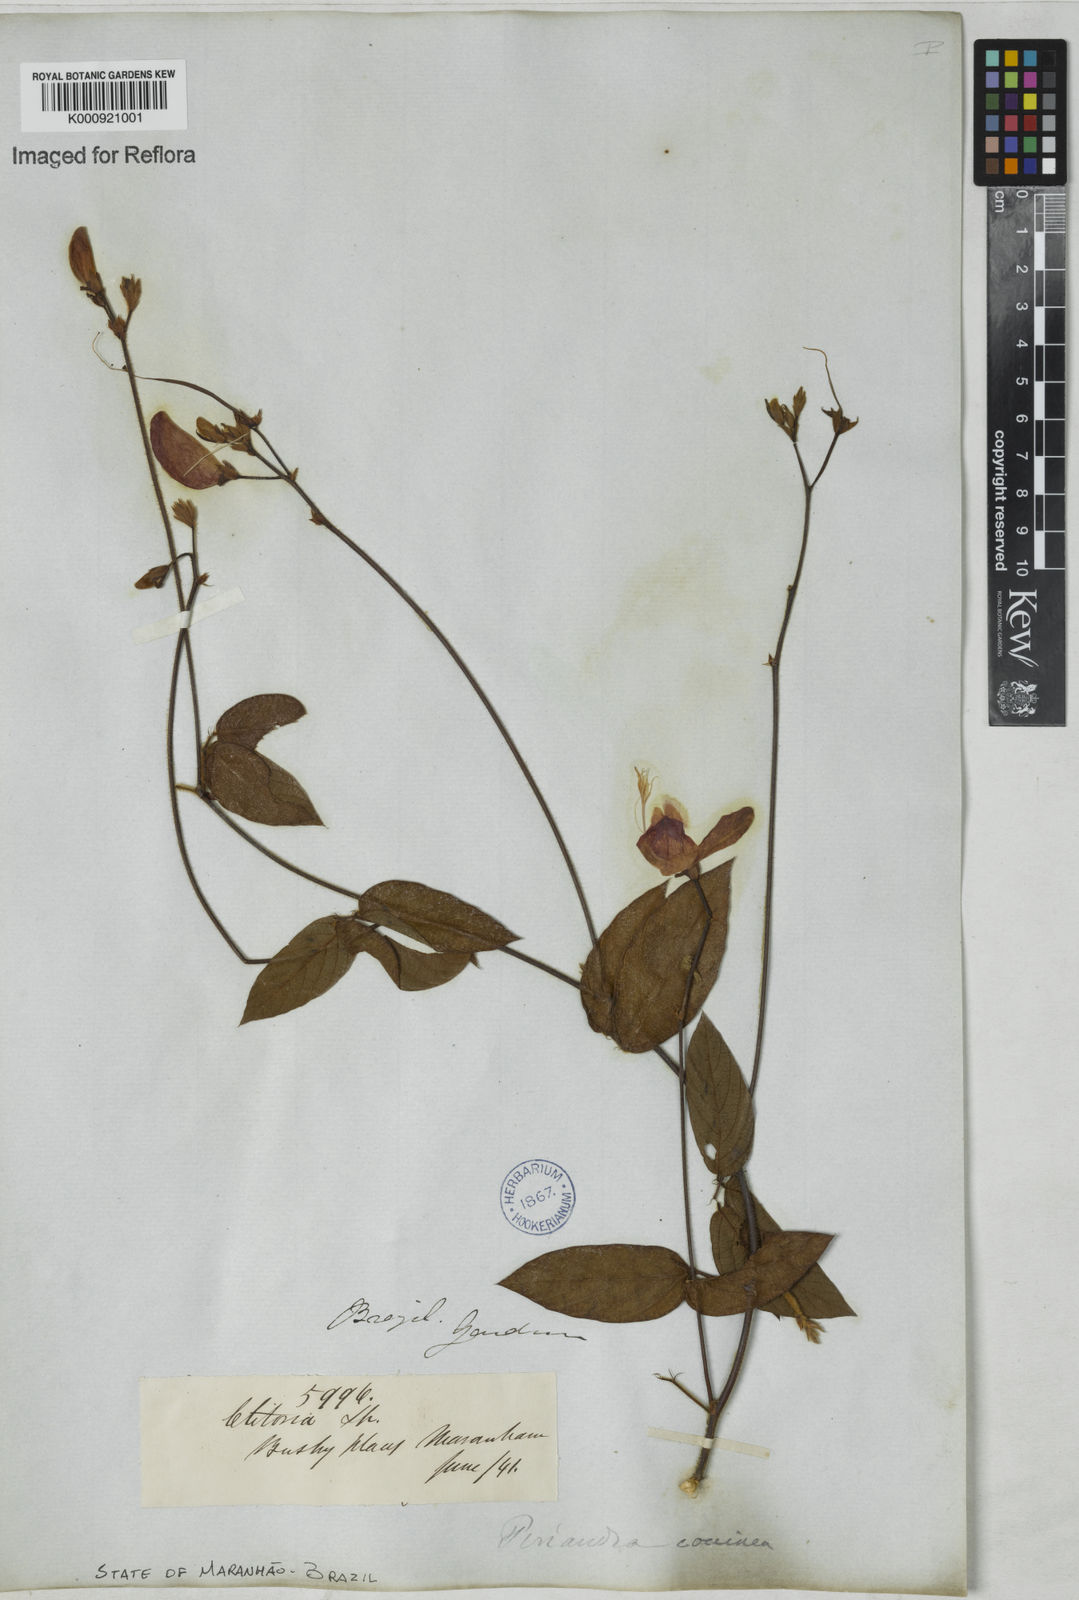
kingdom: Plantae
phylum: Tracheophyta
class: Magnoliopsida
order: Fabales
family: Fabaceae
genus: Periandra
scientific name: Periandra coccinea
